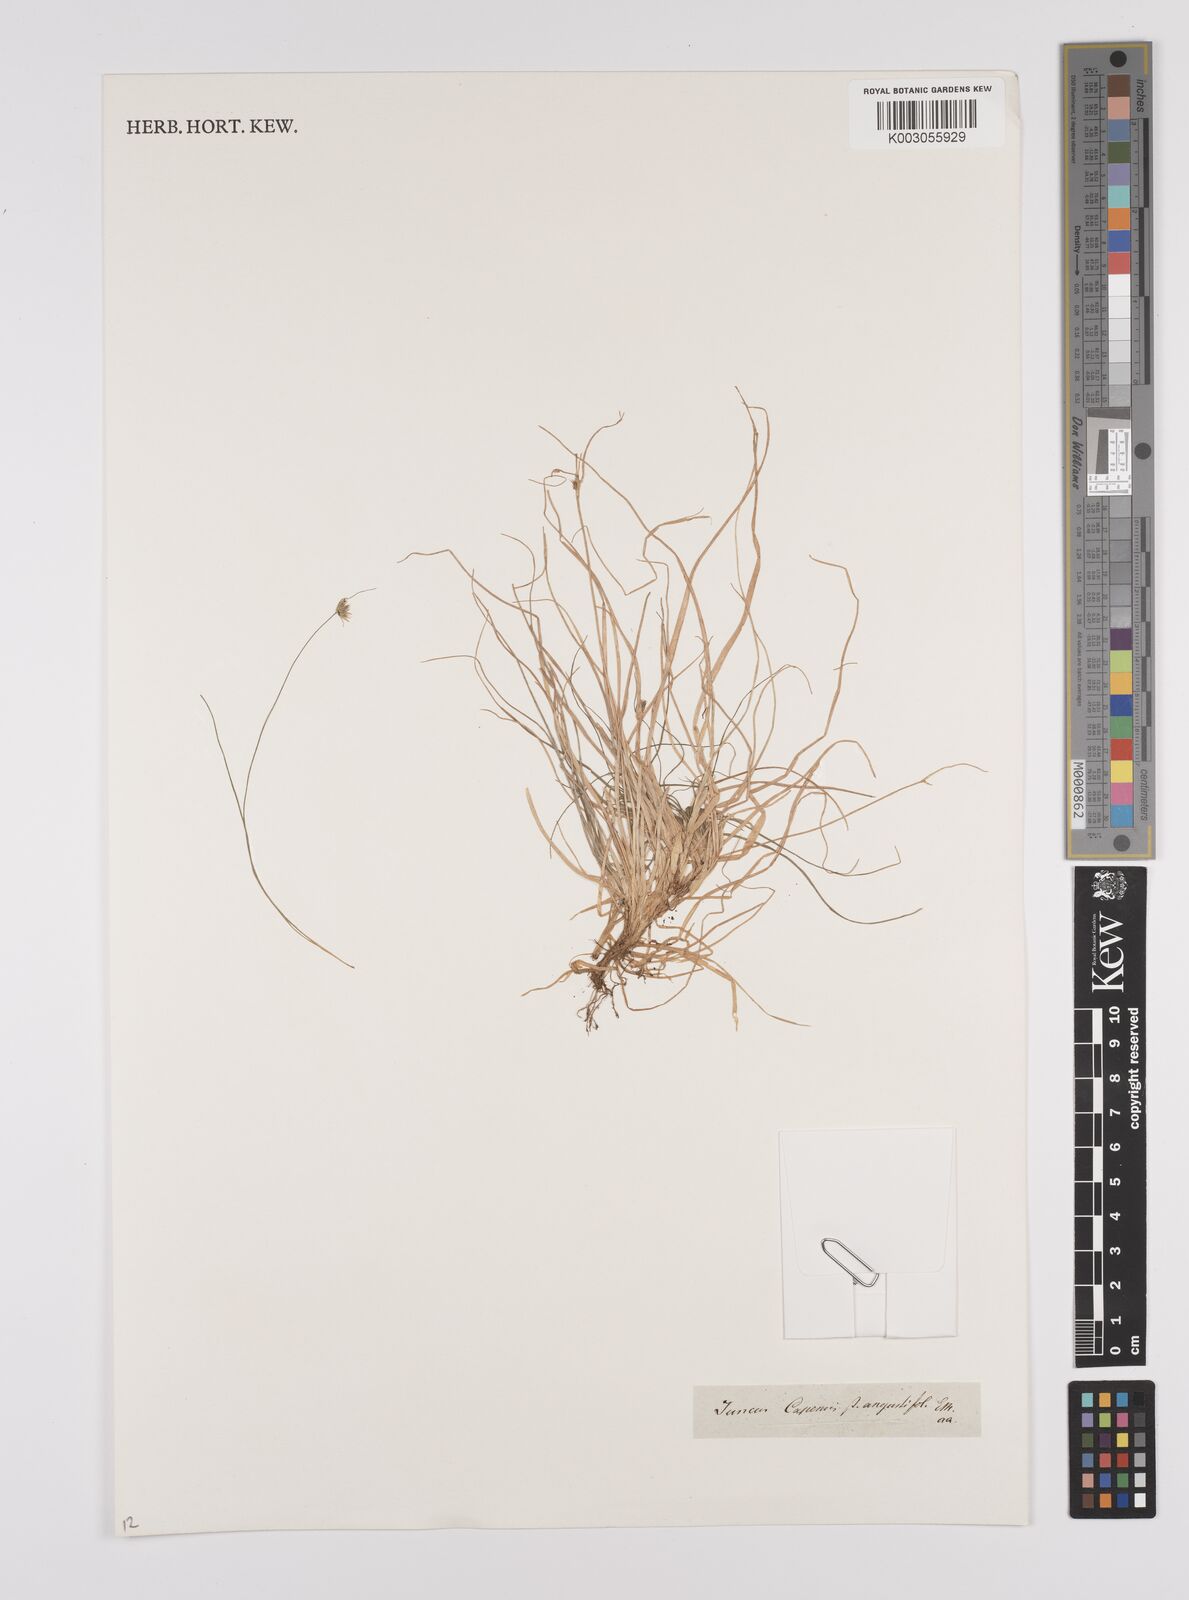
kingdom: Plantae
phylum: Tracheophyta
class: Liliopsida
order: Poales
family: Juncaceae
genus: Juncus
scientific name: Juncus capensis
